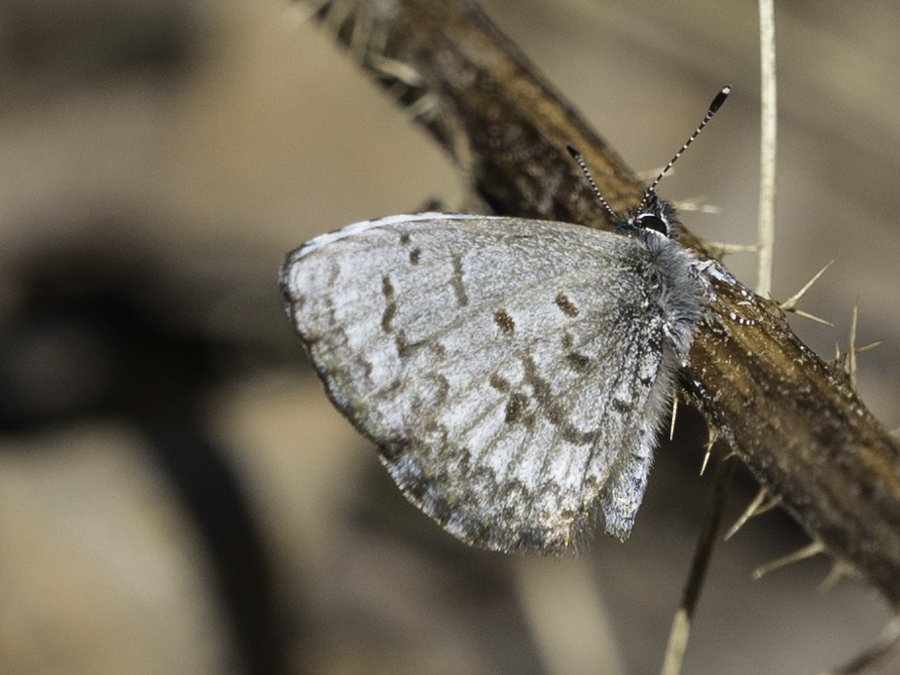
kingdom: Animalia
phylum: Arthropoda
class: Insecta
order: Lepidoptera
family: Lycaenidae
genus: Celastrina
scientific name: Celastrina lucia
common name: Northern Spring Azure
